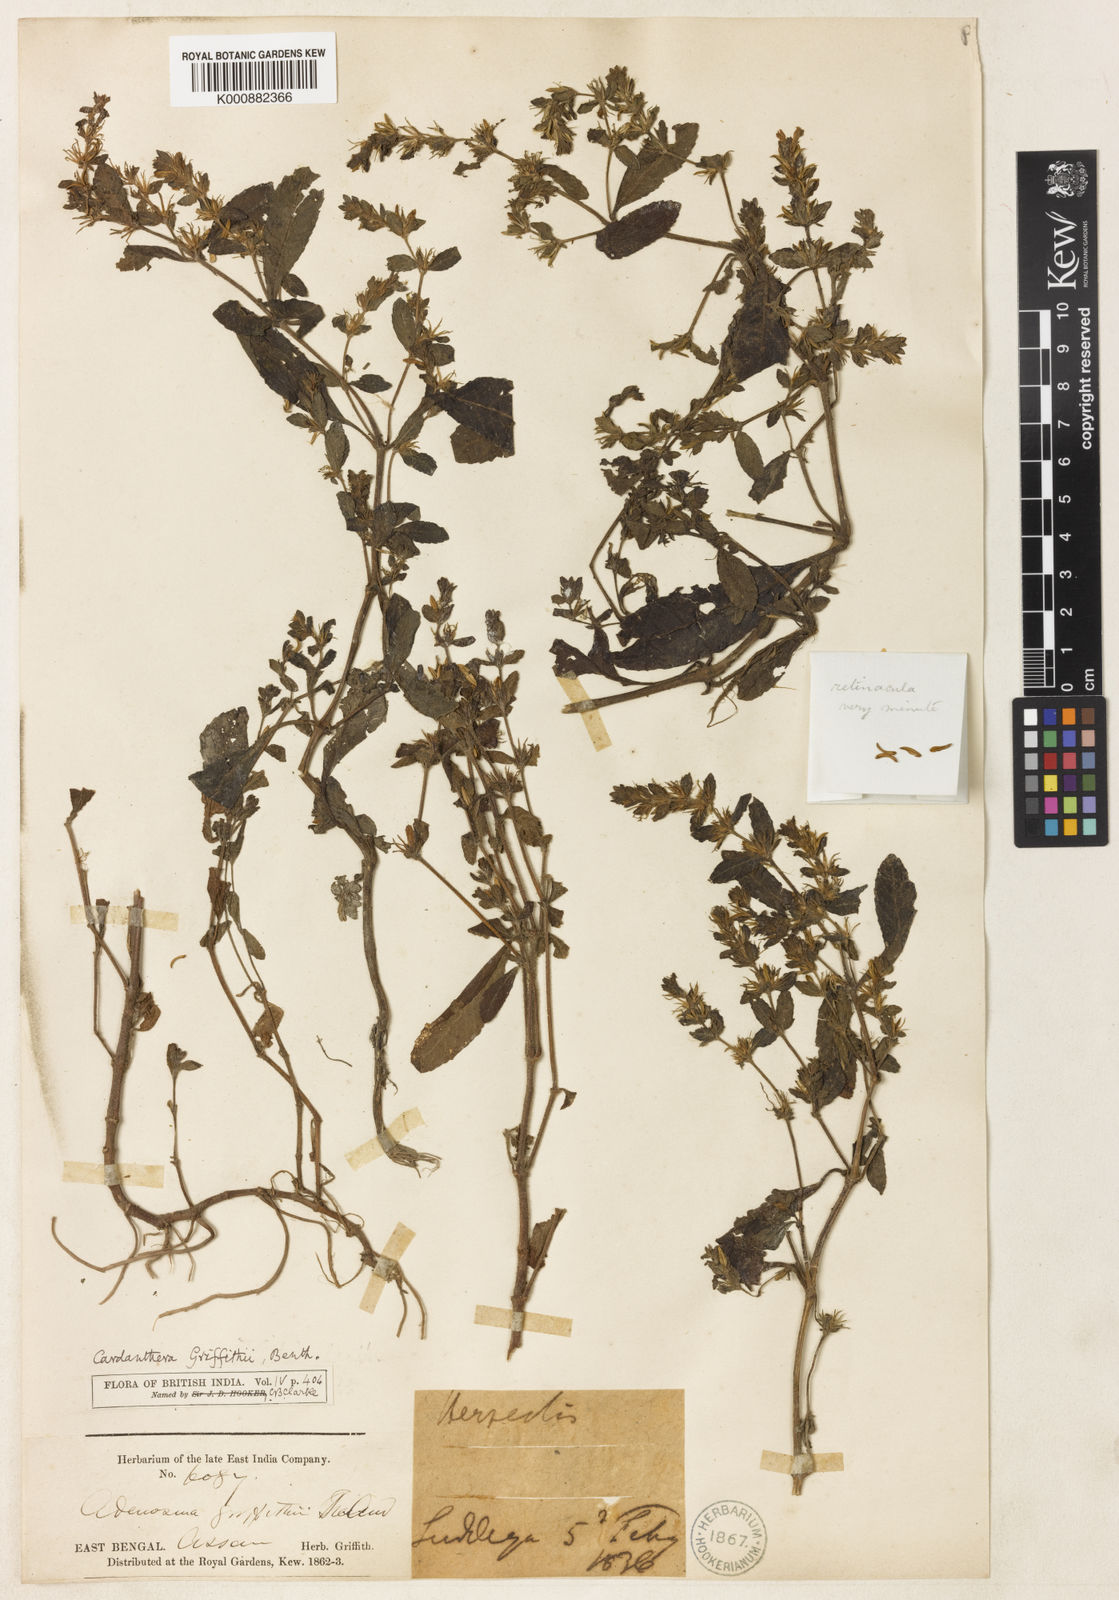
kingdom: Plantae
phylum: Tracheophyta
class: Magnoliopsida
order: Lamiales
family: Acanthaceae
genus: Hygrophila
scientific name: Hygrophila griffithii
